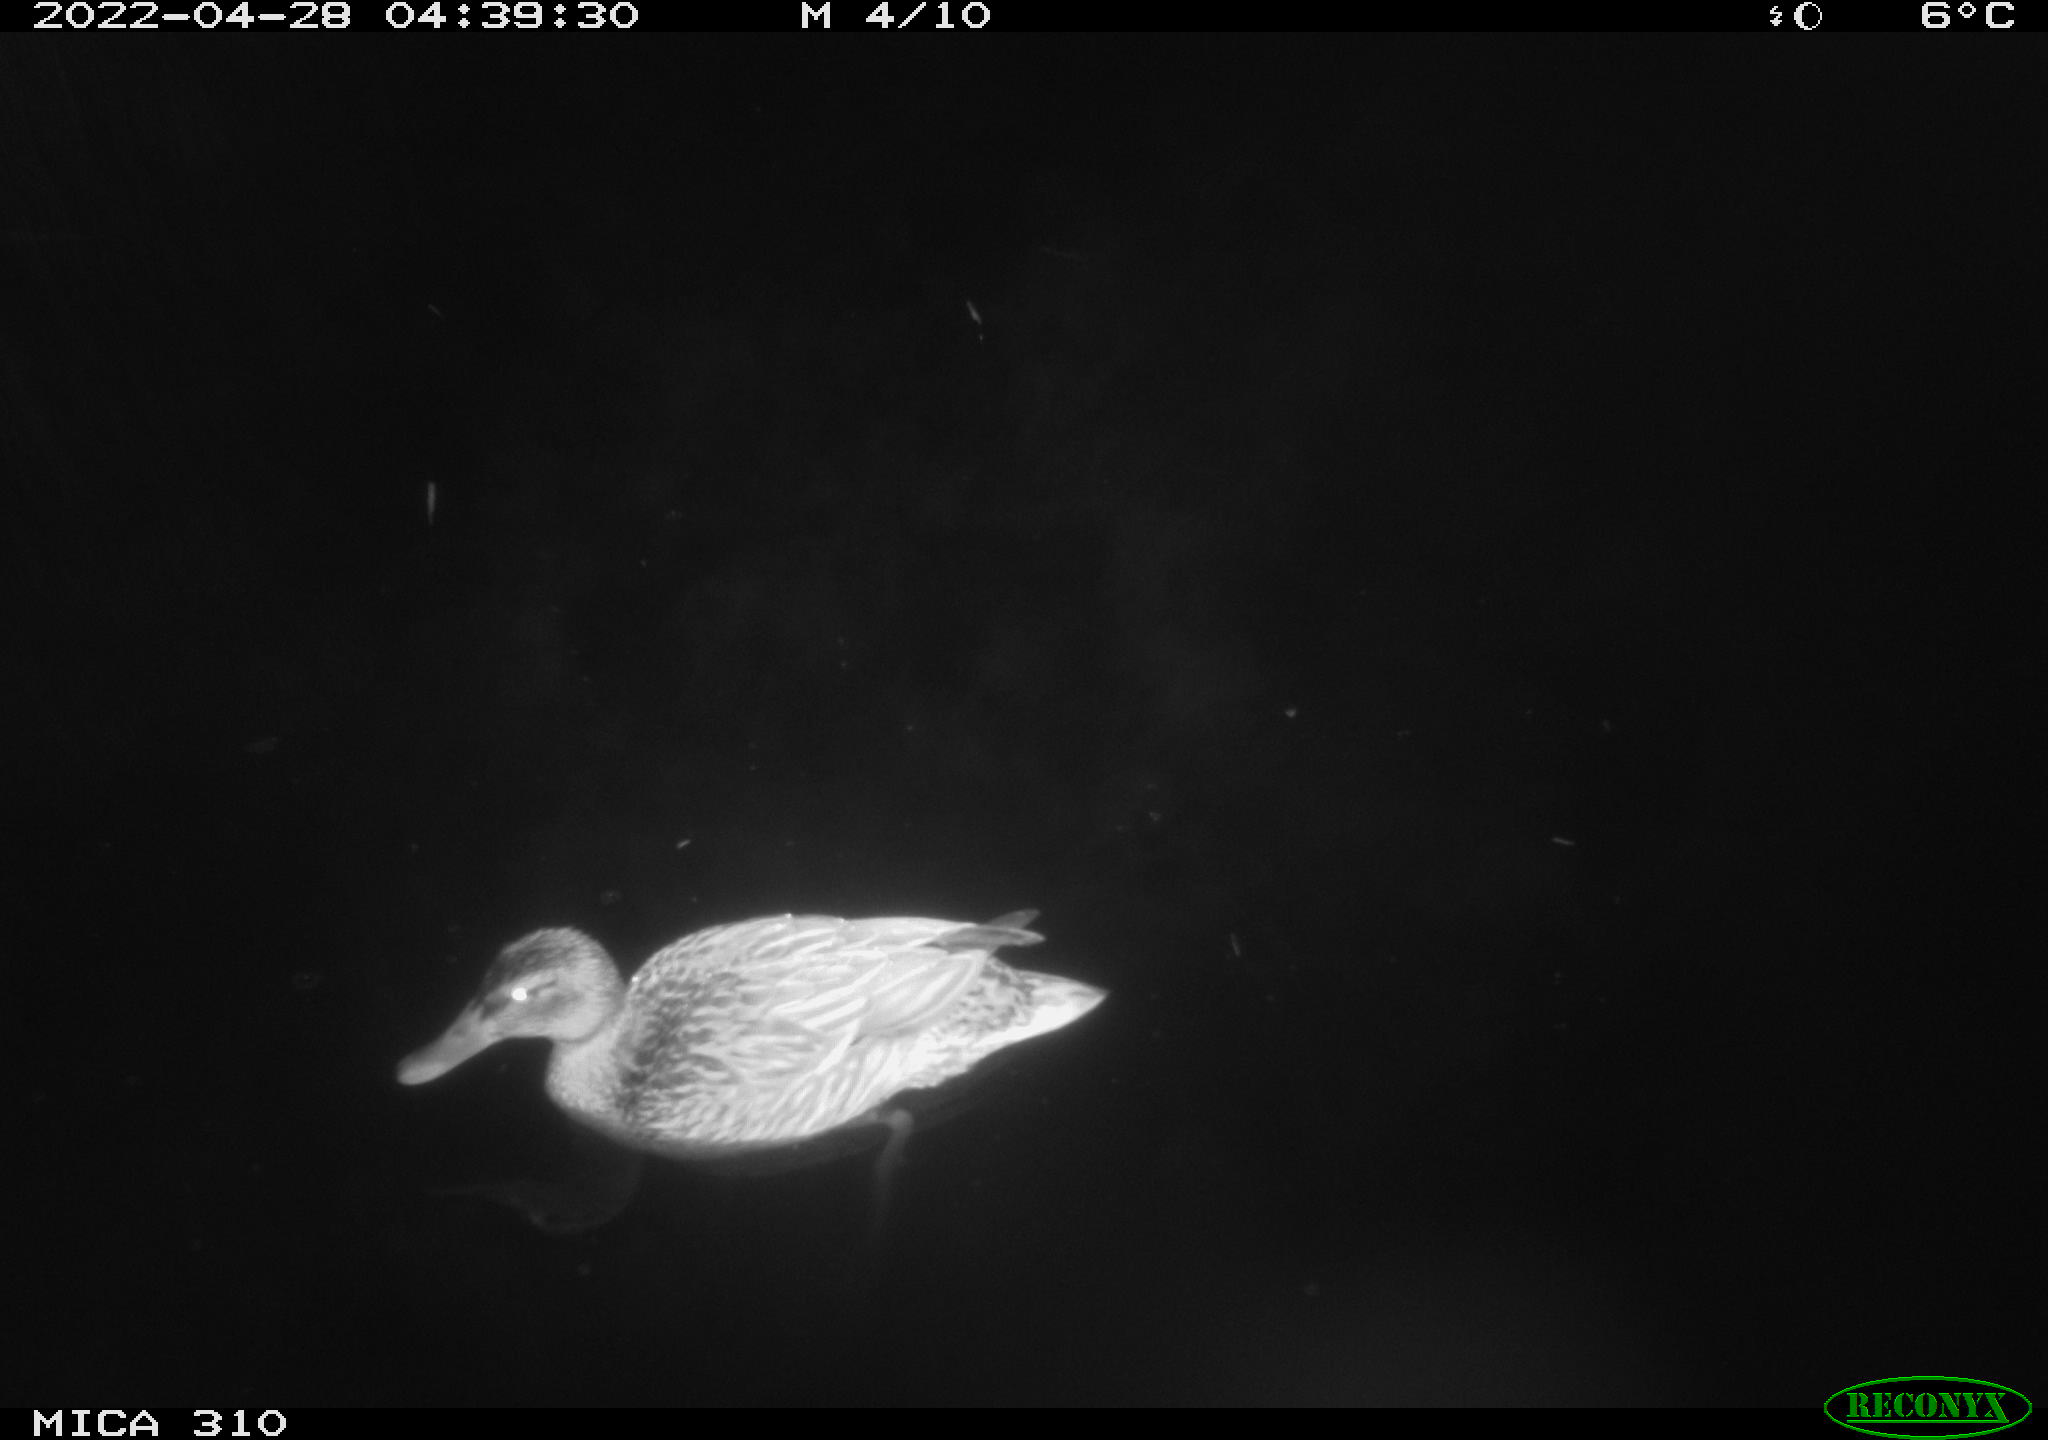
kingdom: Animalia
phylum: Chordata
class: Mammalia
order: Rodentia
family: Cricetidae
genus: Ondatra
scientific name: Ondatra zibethicus
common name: Muskrat
